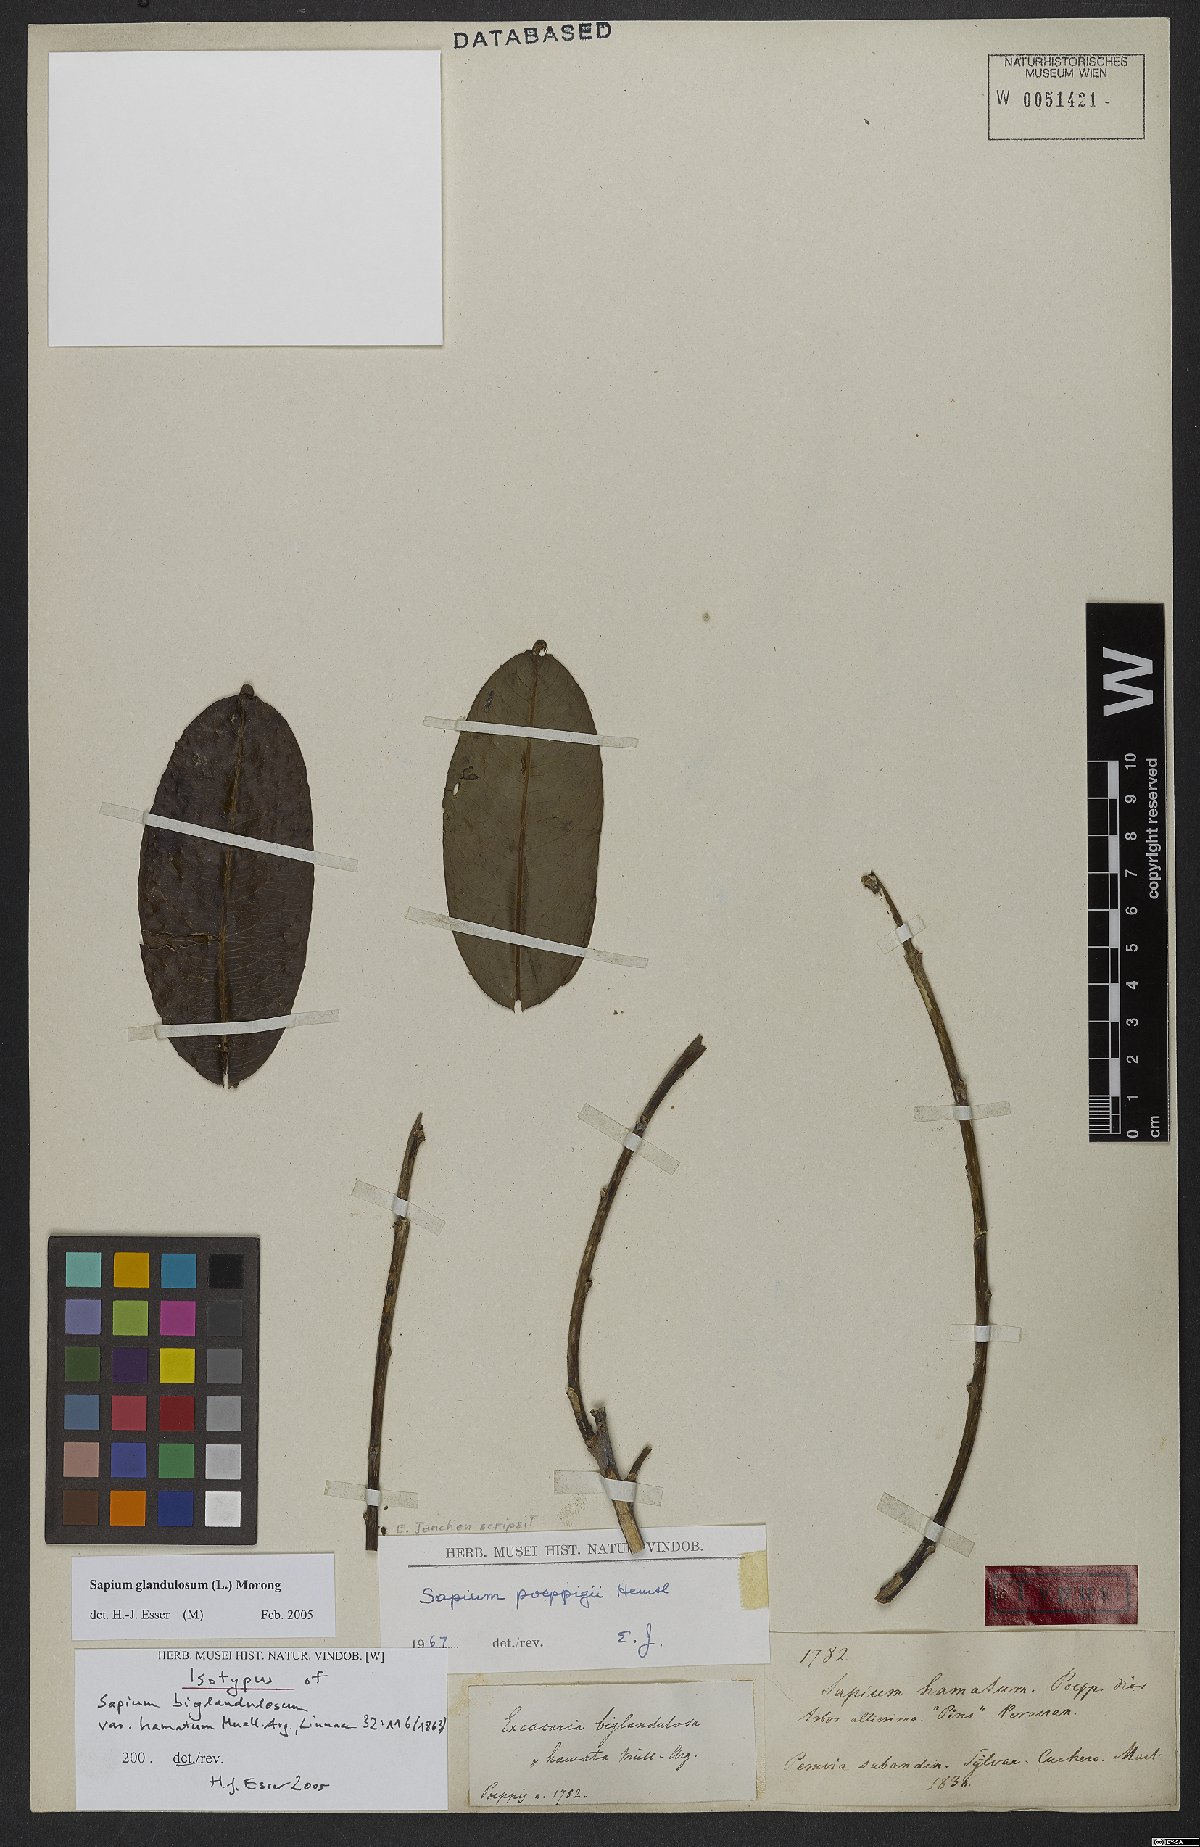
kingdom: Plantae
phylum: Tracheophyta
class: Magnoliopsida
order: Malpighiales
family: Euphorbiaceae
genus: Sapium
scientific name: Sapium glandulosum
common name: Milktree
